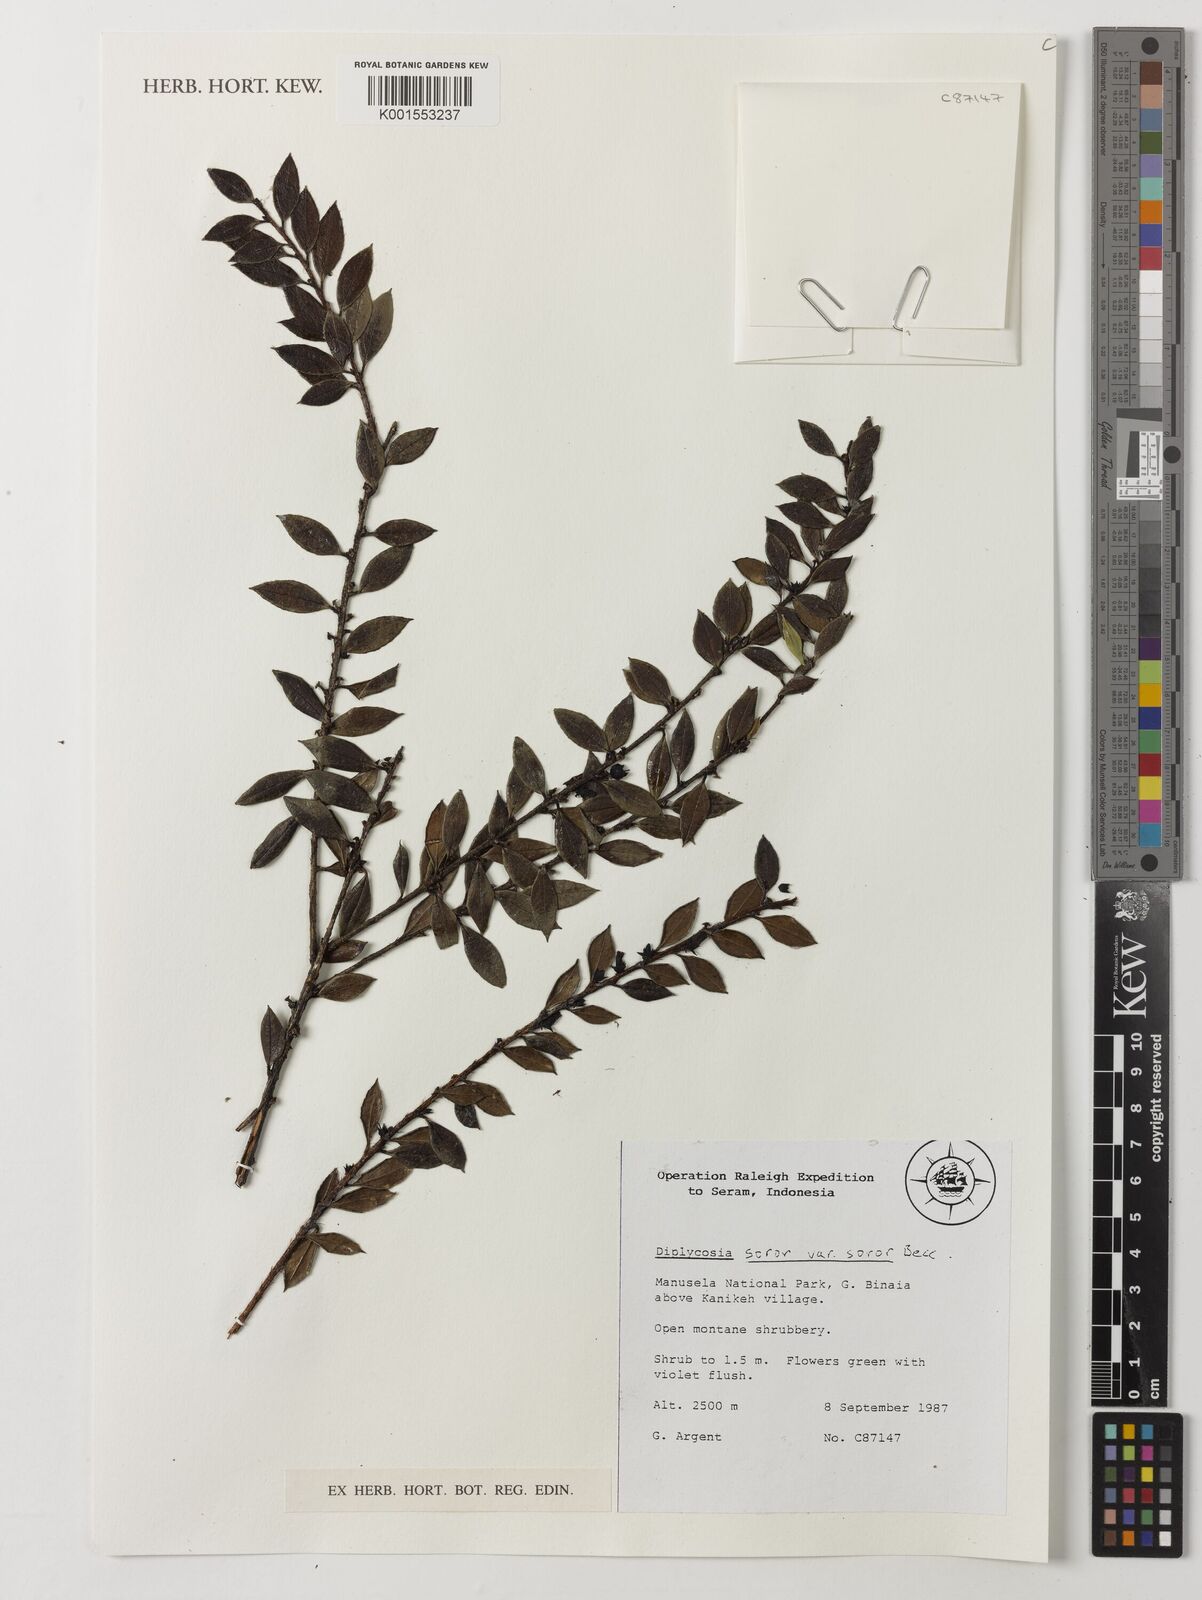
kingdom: Plantae
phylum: Tracheophyta
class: Magnoliopsida
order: Ericales
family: Ericaceae
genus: Gaultheria
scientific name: Gaultheria soror
